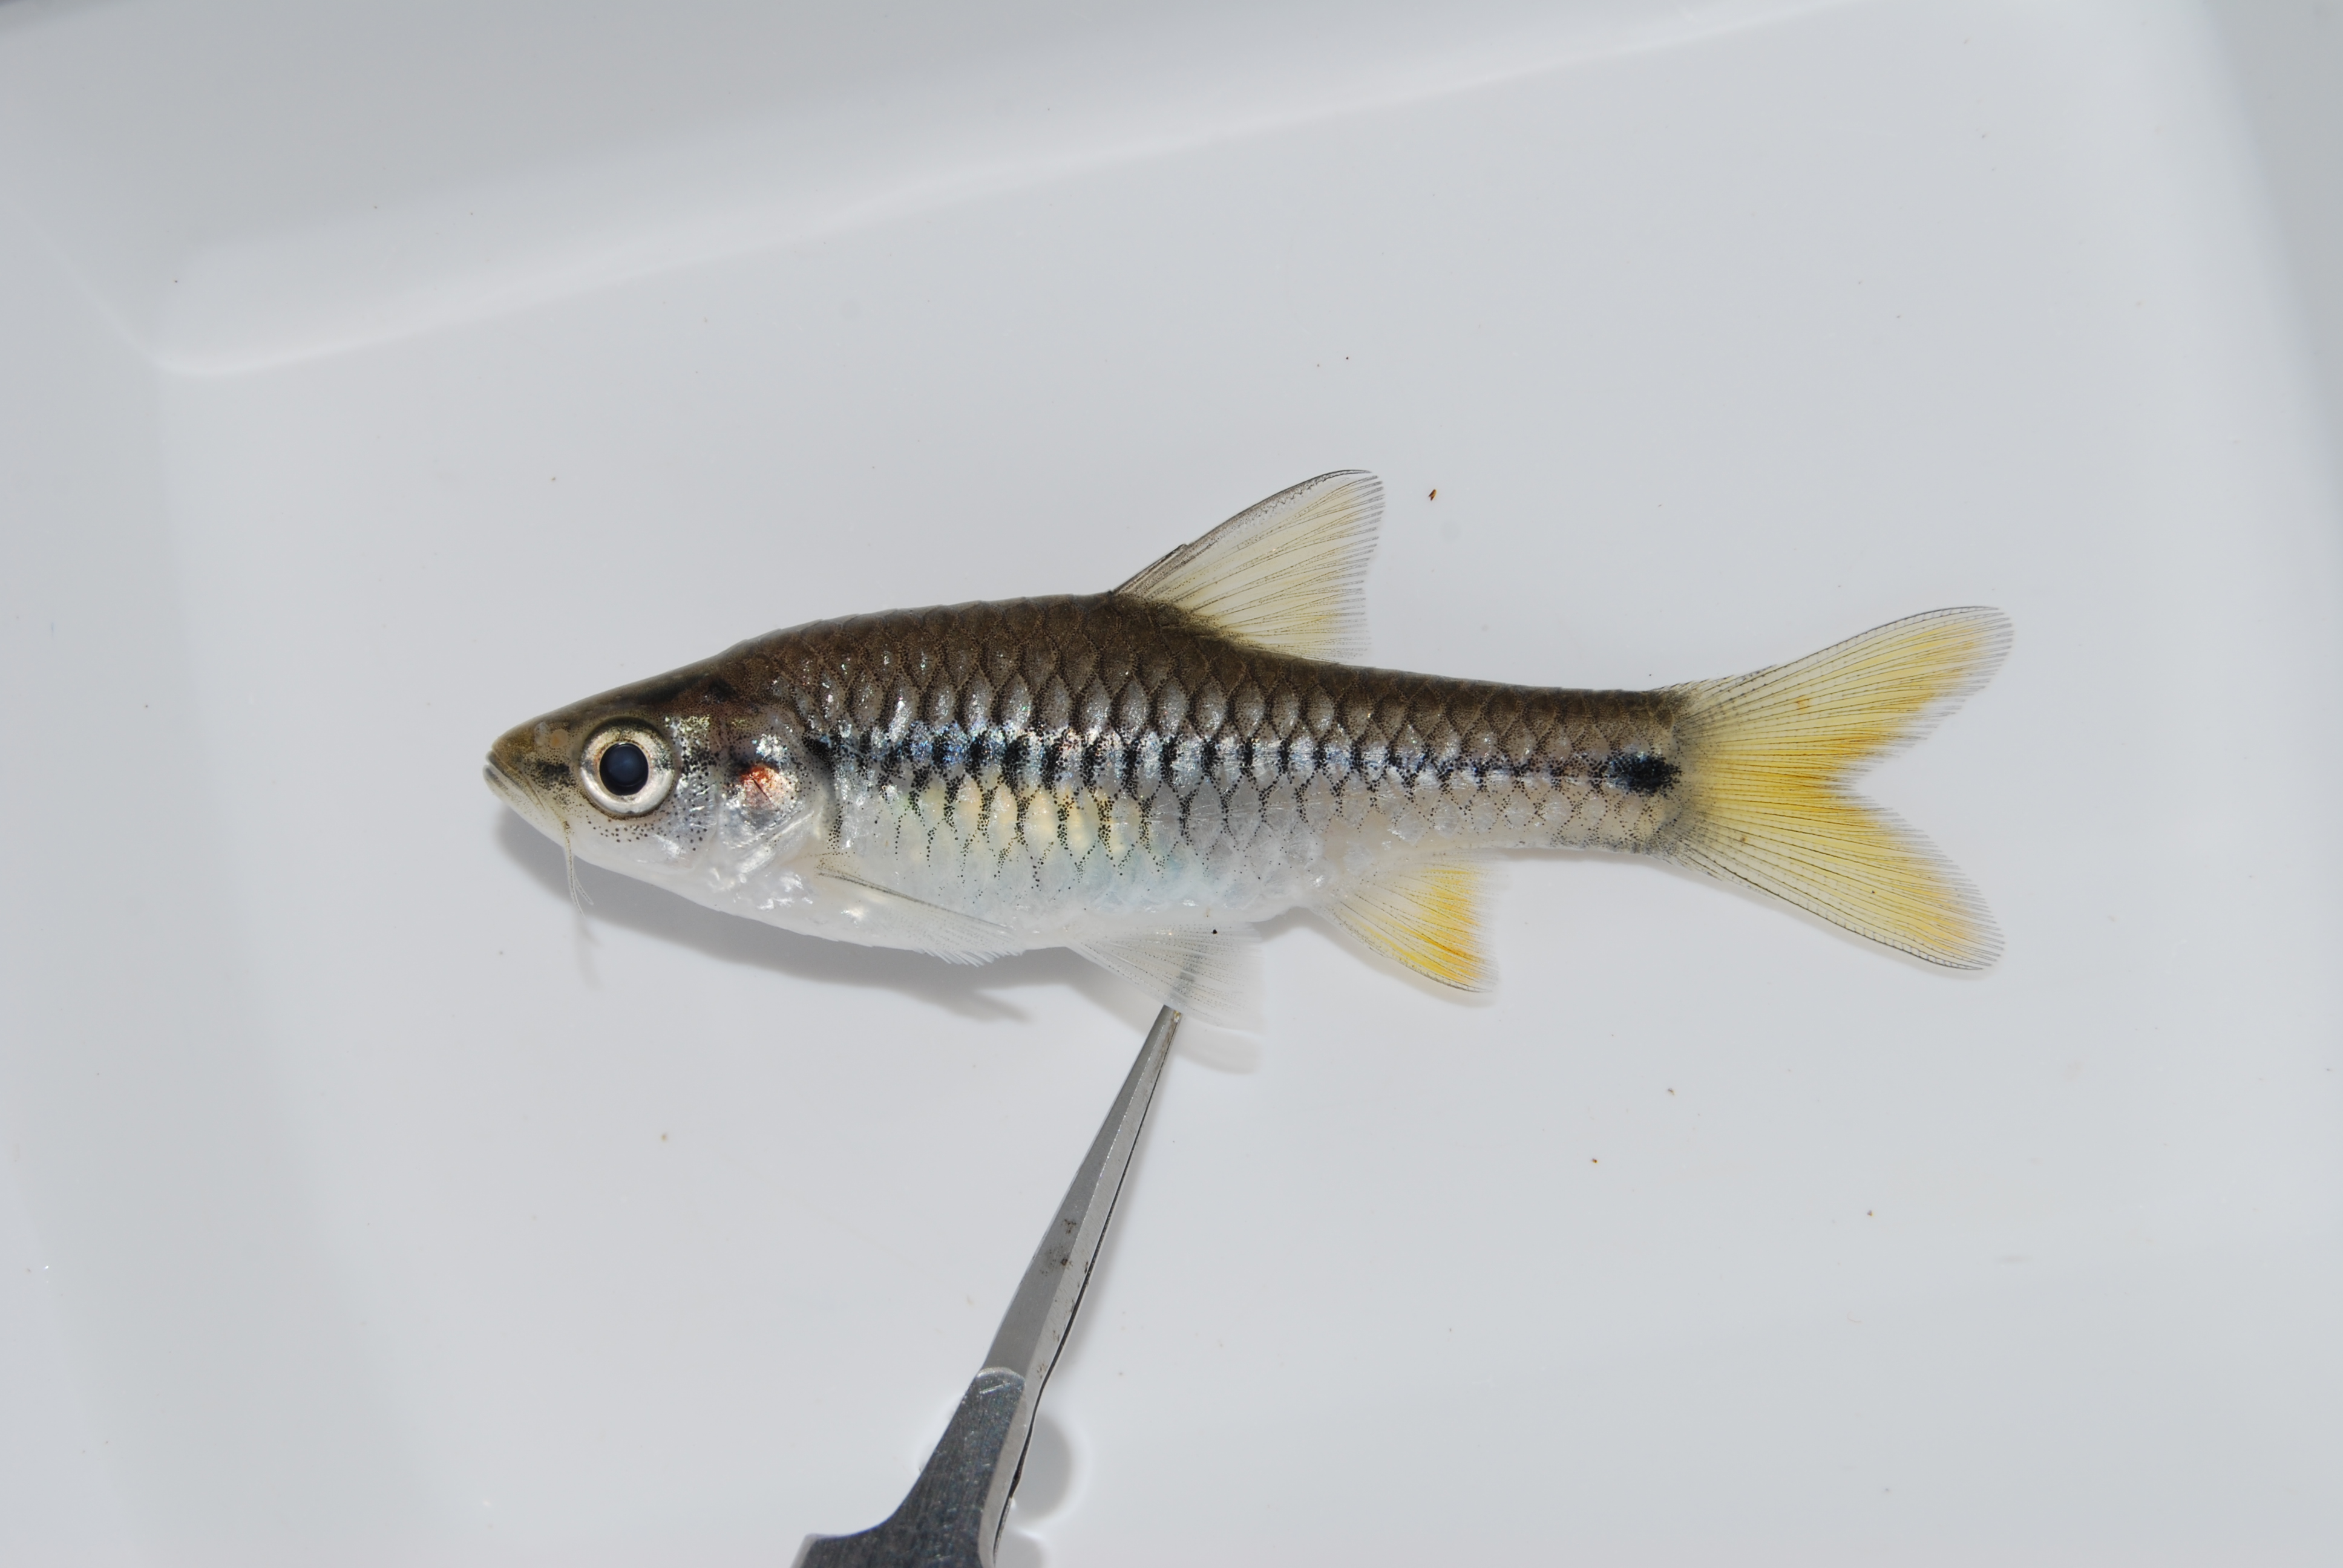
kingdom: Animalia
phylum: Chordata
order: Cypriniformes
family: Cyprinidae
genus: Enteromius
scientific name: Enteromius kerstenii
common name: Redspot barb
